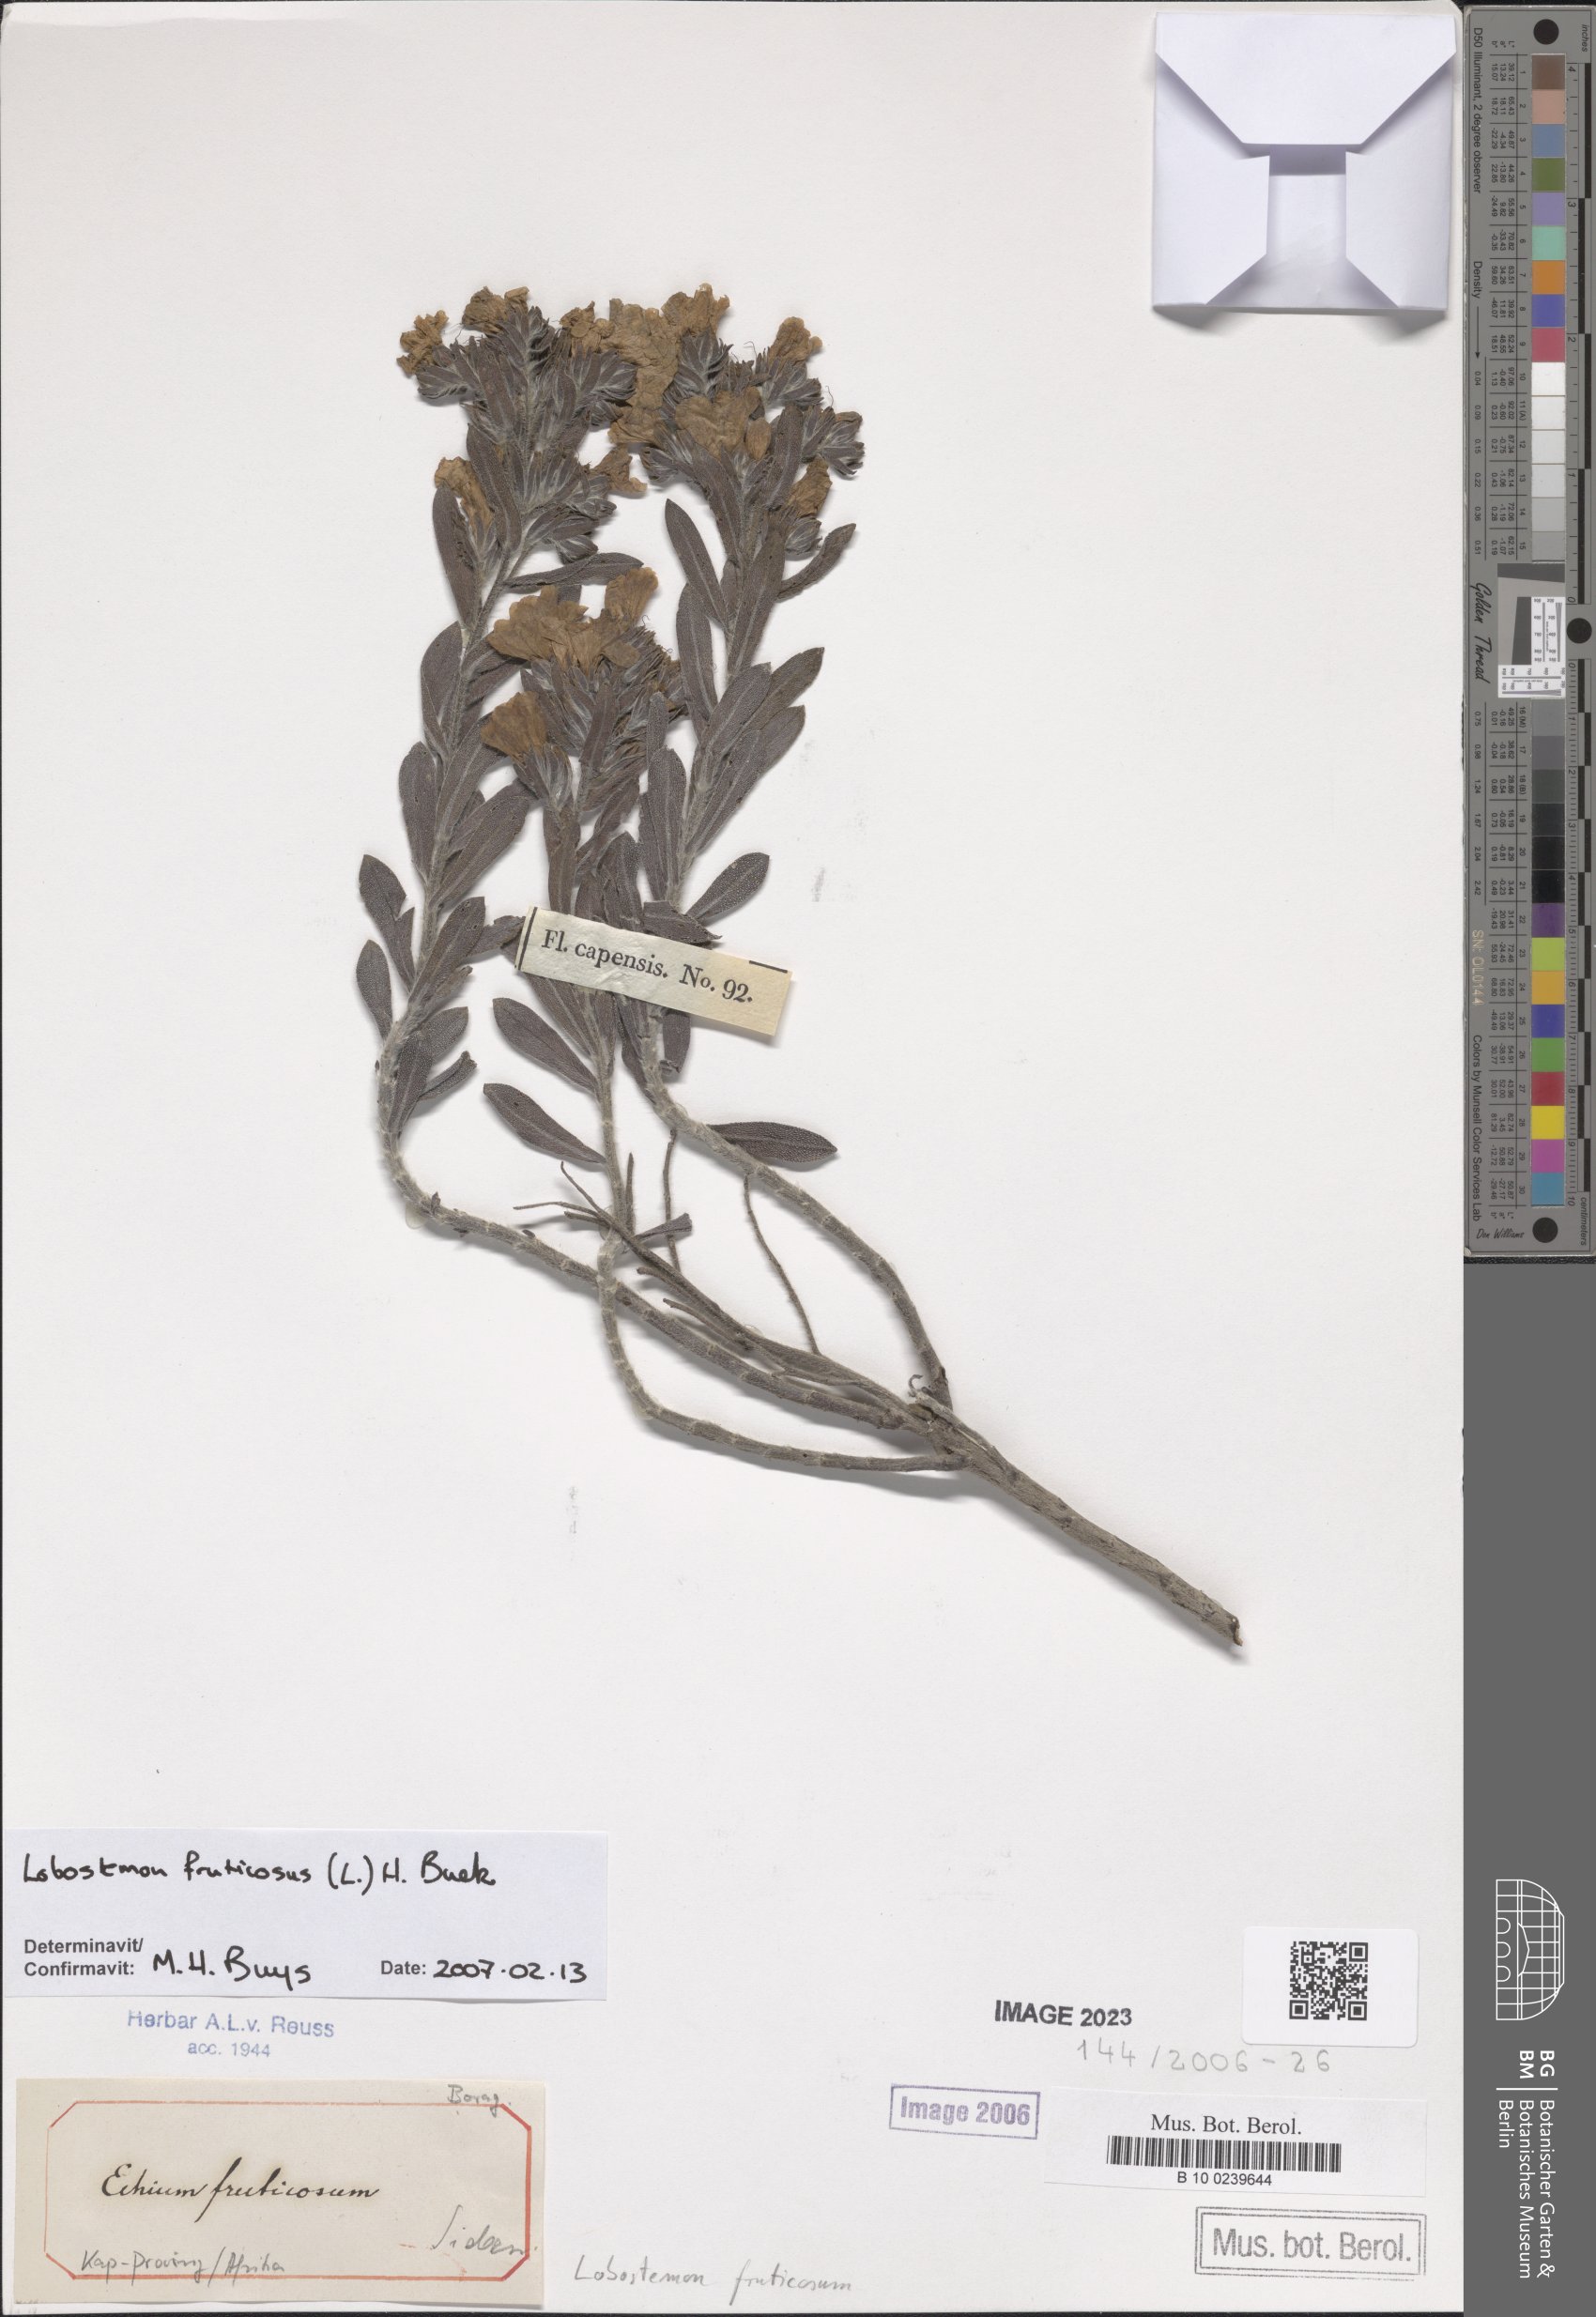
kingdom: Plantae
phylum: Tracheophyta
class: Magnoliopsida
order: Boraginales
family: Boraginaceae
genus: Lobostemon
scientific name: Lobostemon fruticosus
